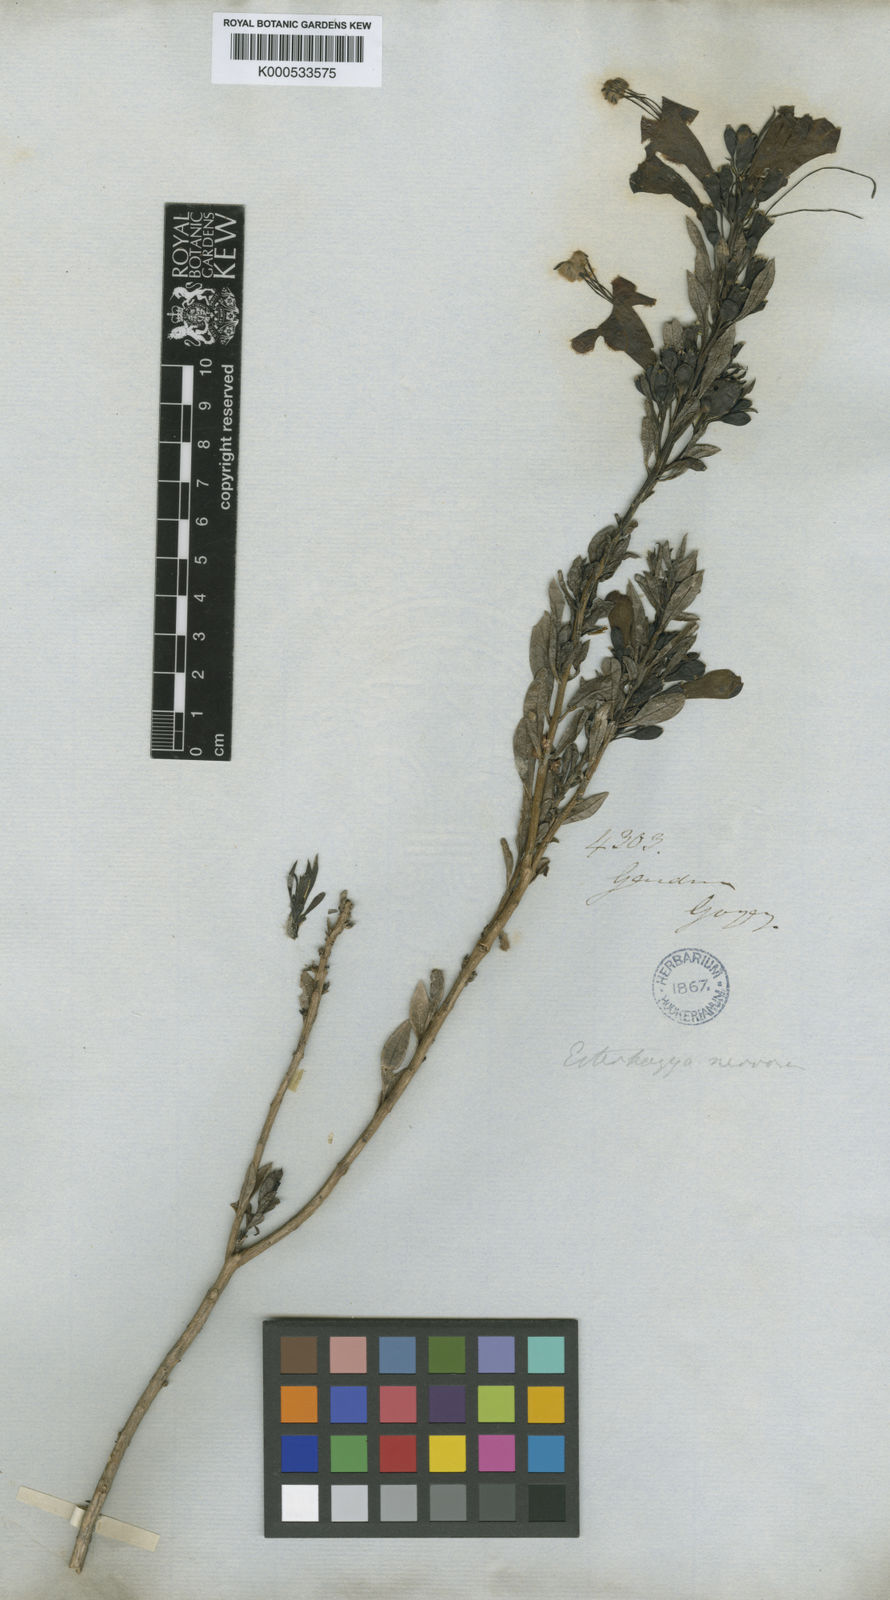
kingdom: Plantae
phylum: Tracheophyta
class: Magnoliopsida
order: Lamiales
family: Orobanchaceae
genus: Esterhazya
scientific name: Esterhazya splendida
